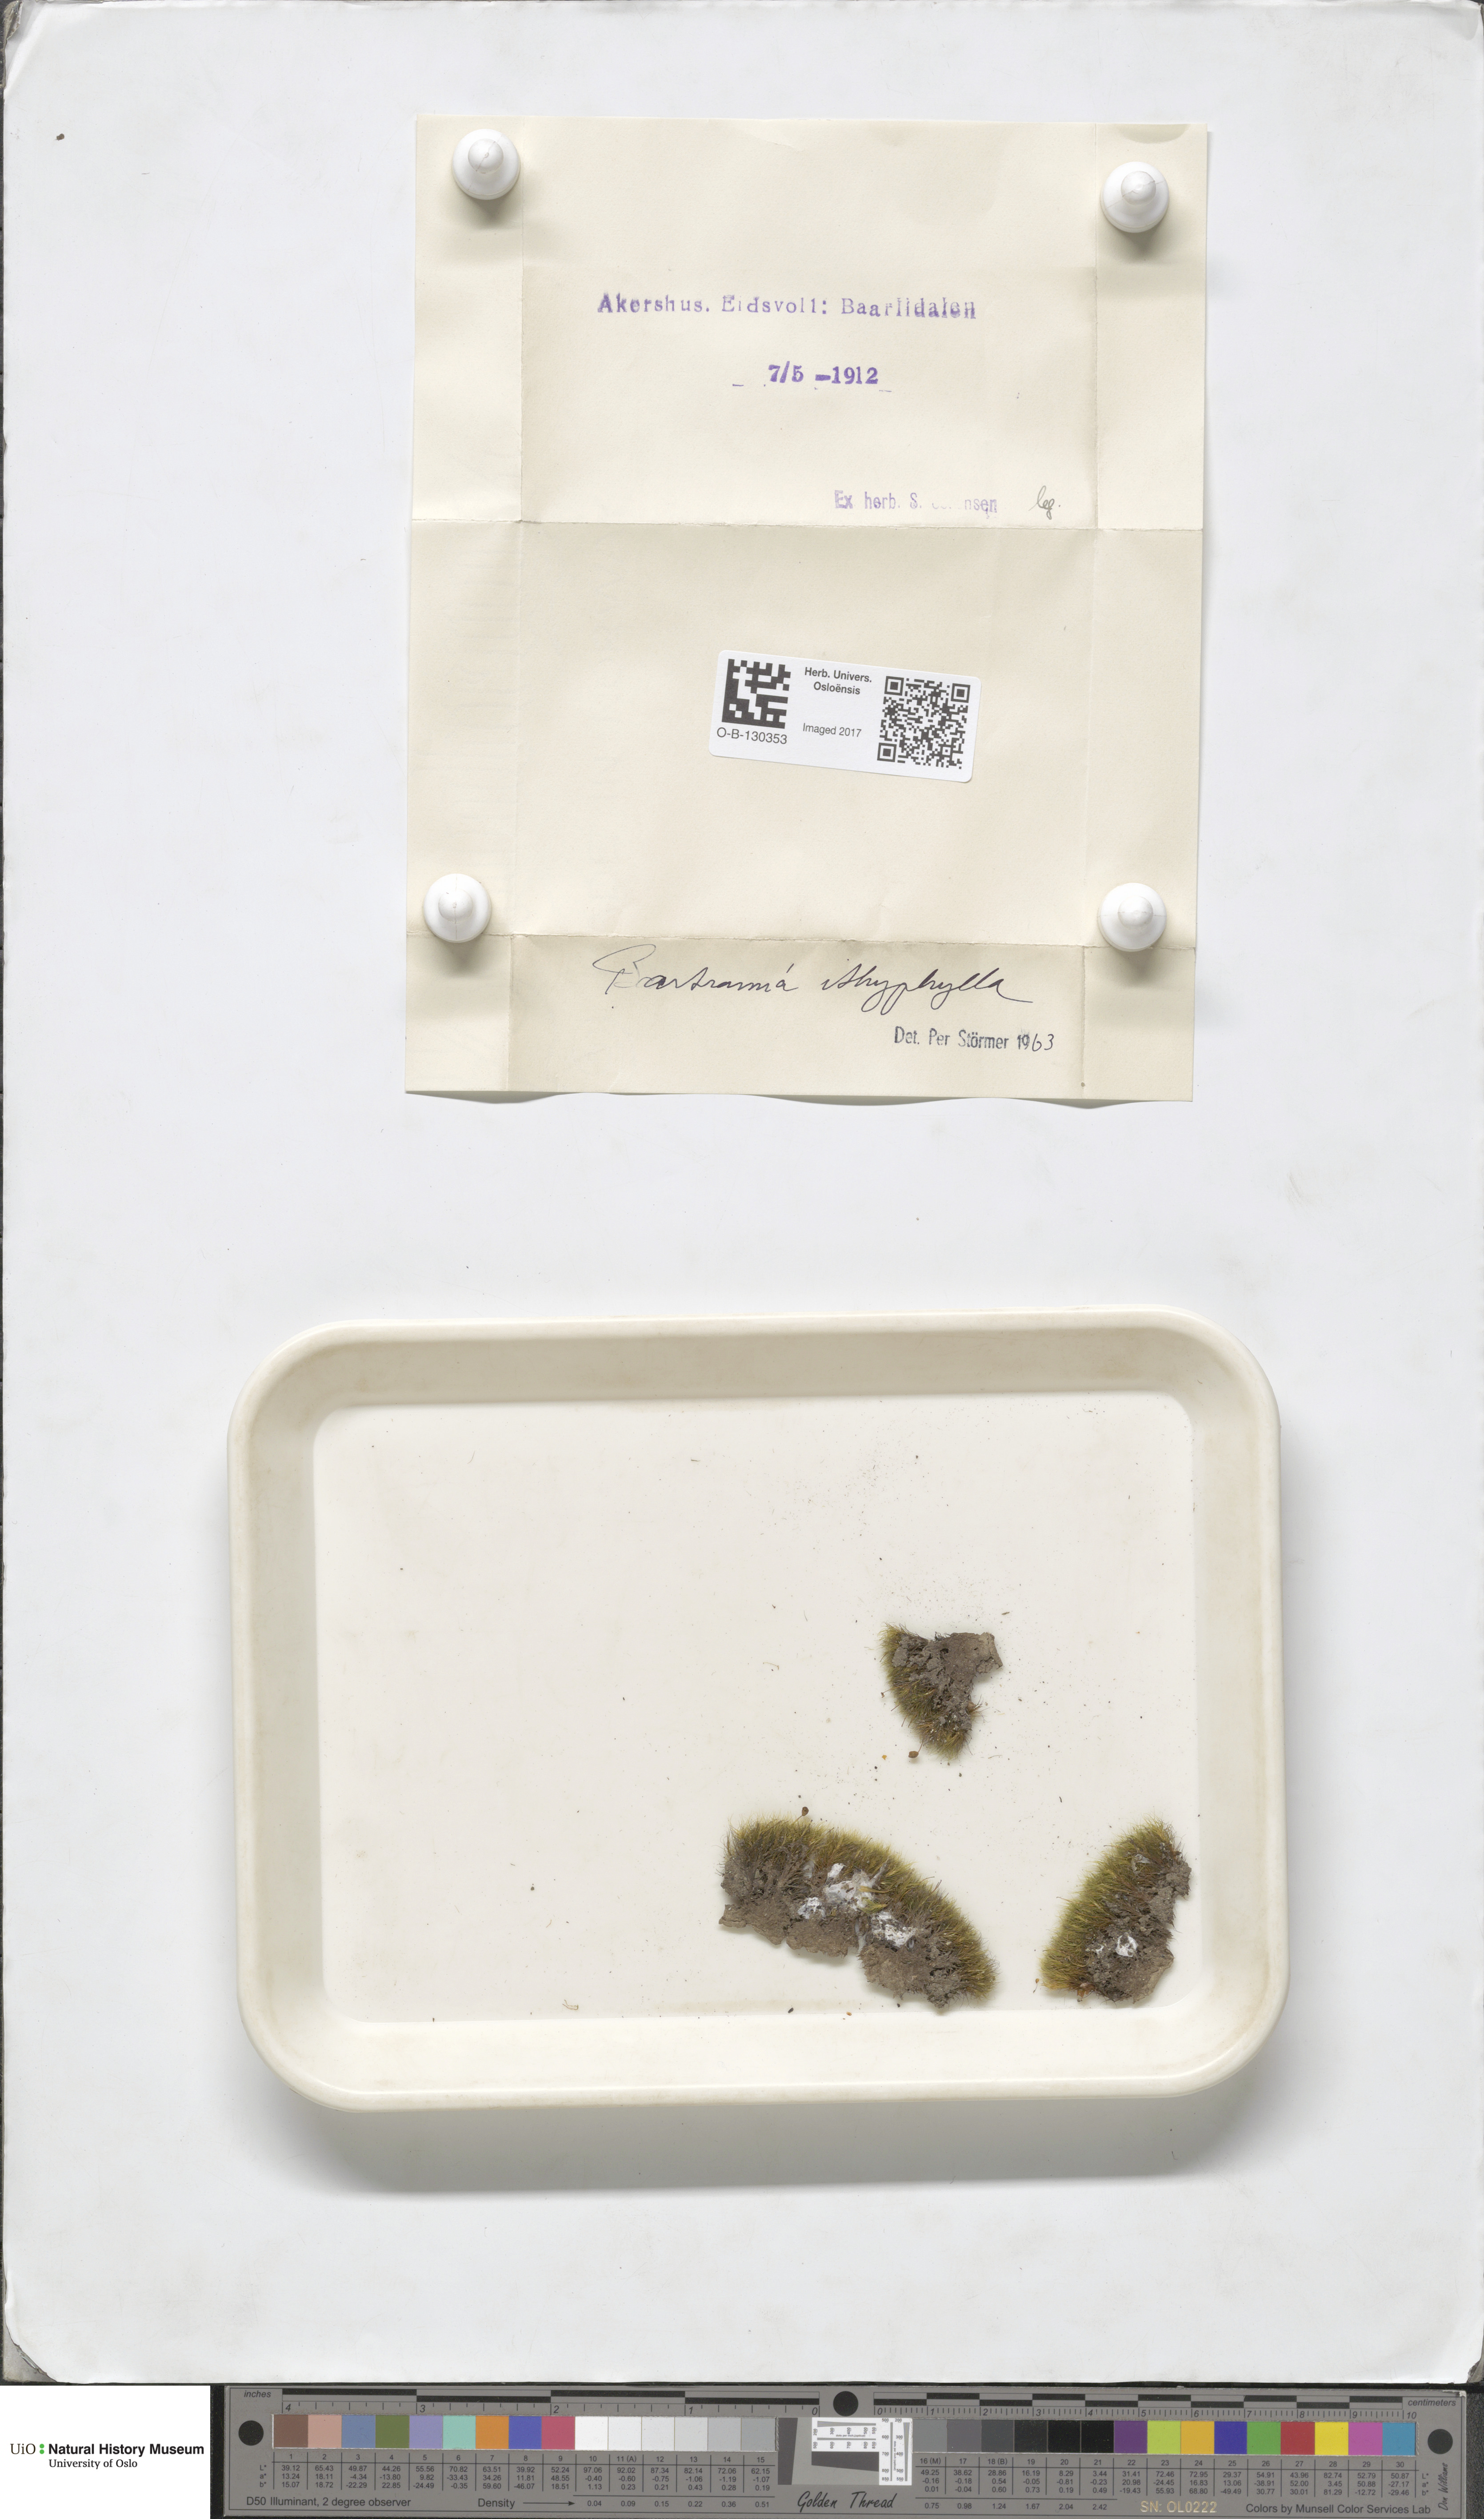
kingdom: Plantae
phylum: Bryophyta
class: Bryopsida
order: Bartramiales
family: Bartramiaceae
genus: Bartramia
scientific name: Bartramia ithyphylla
